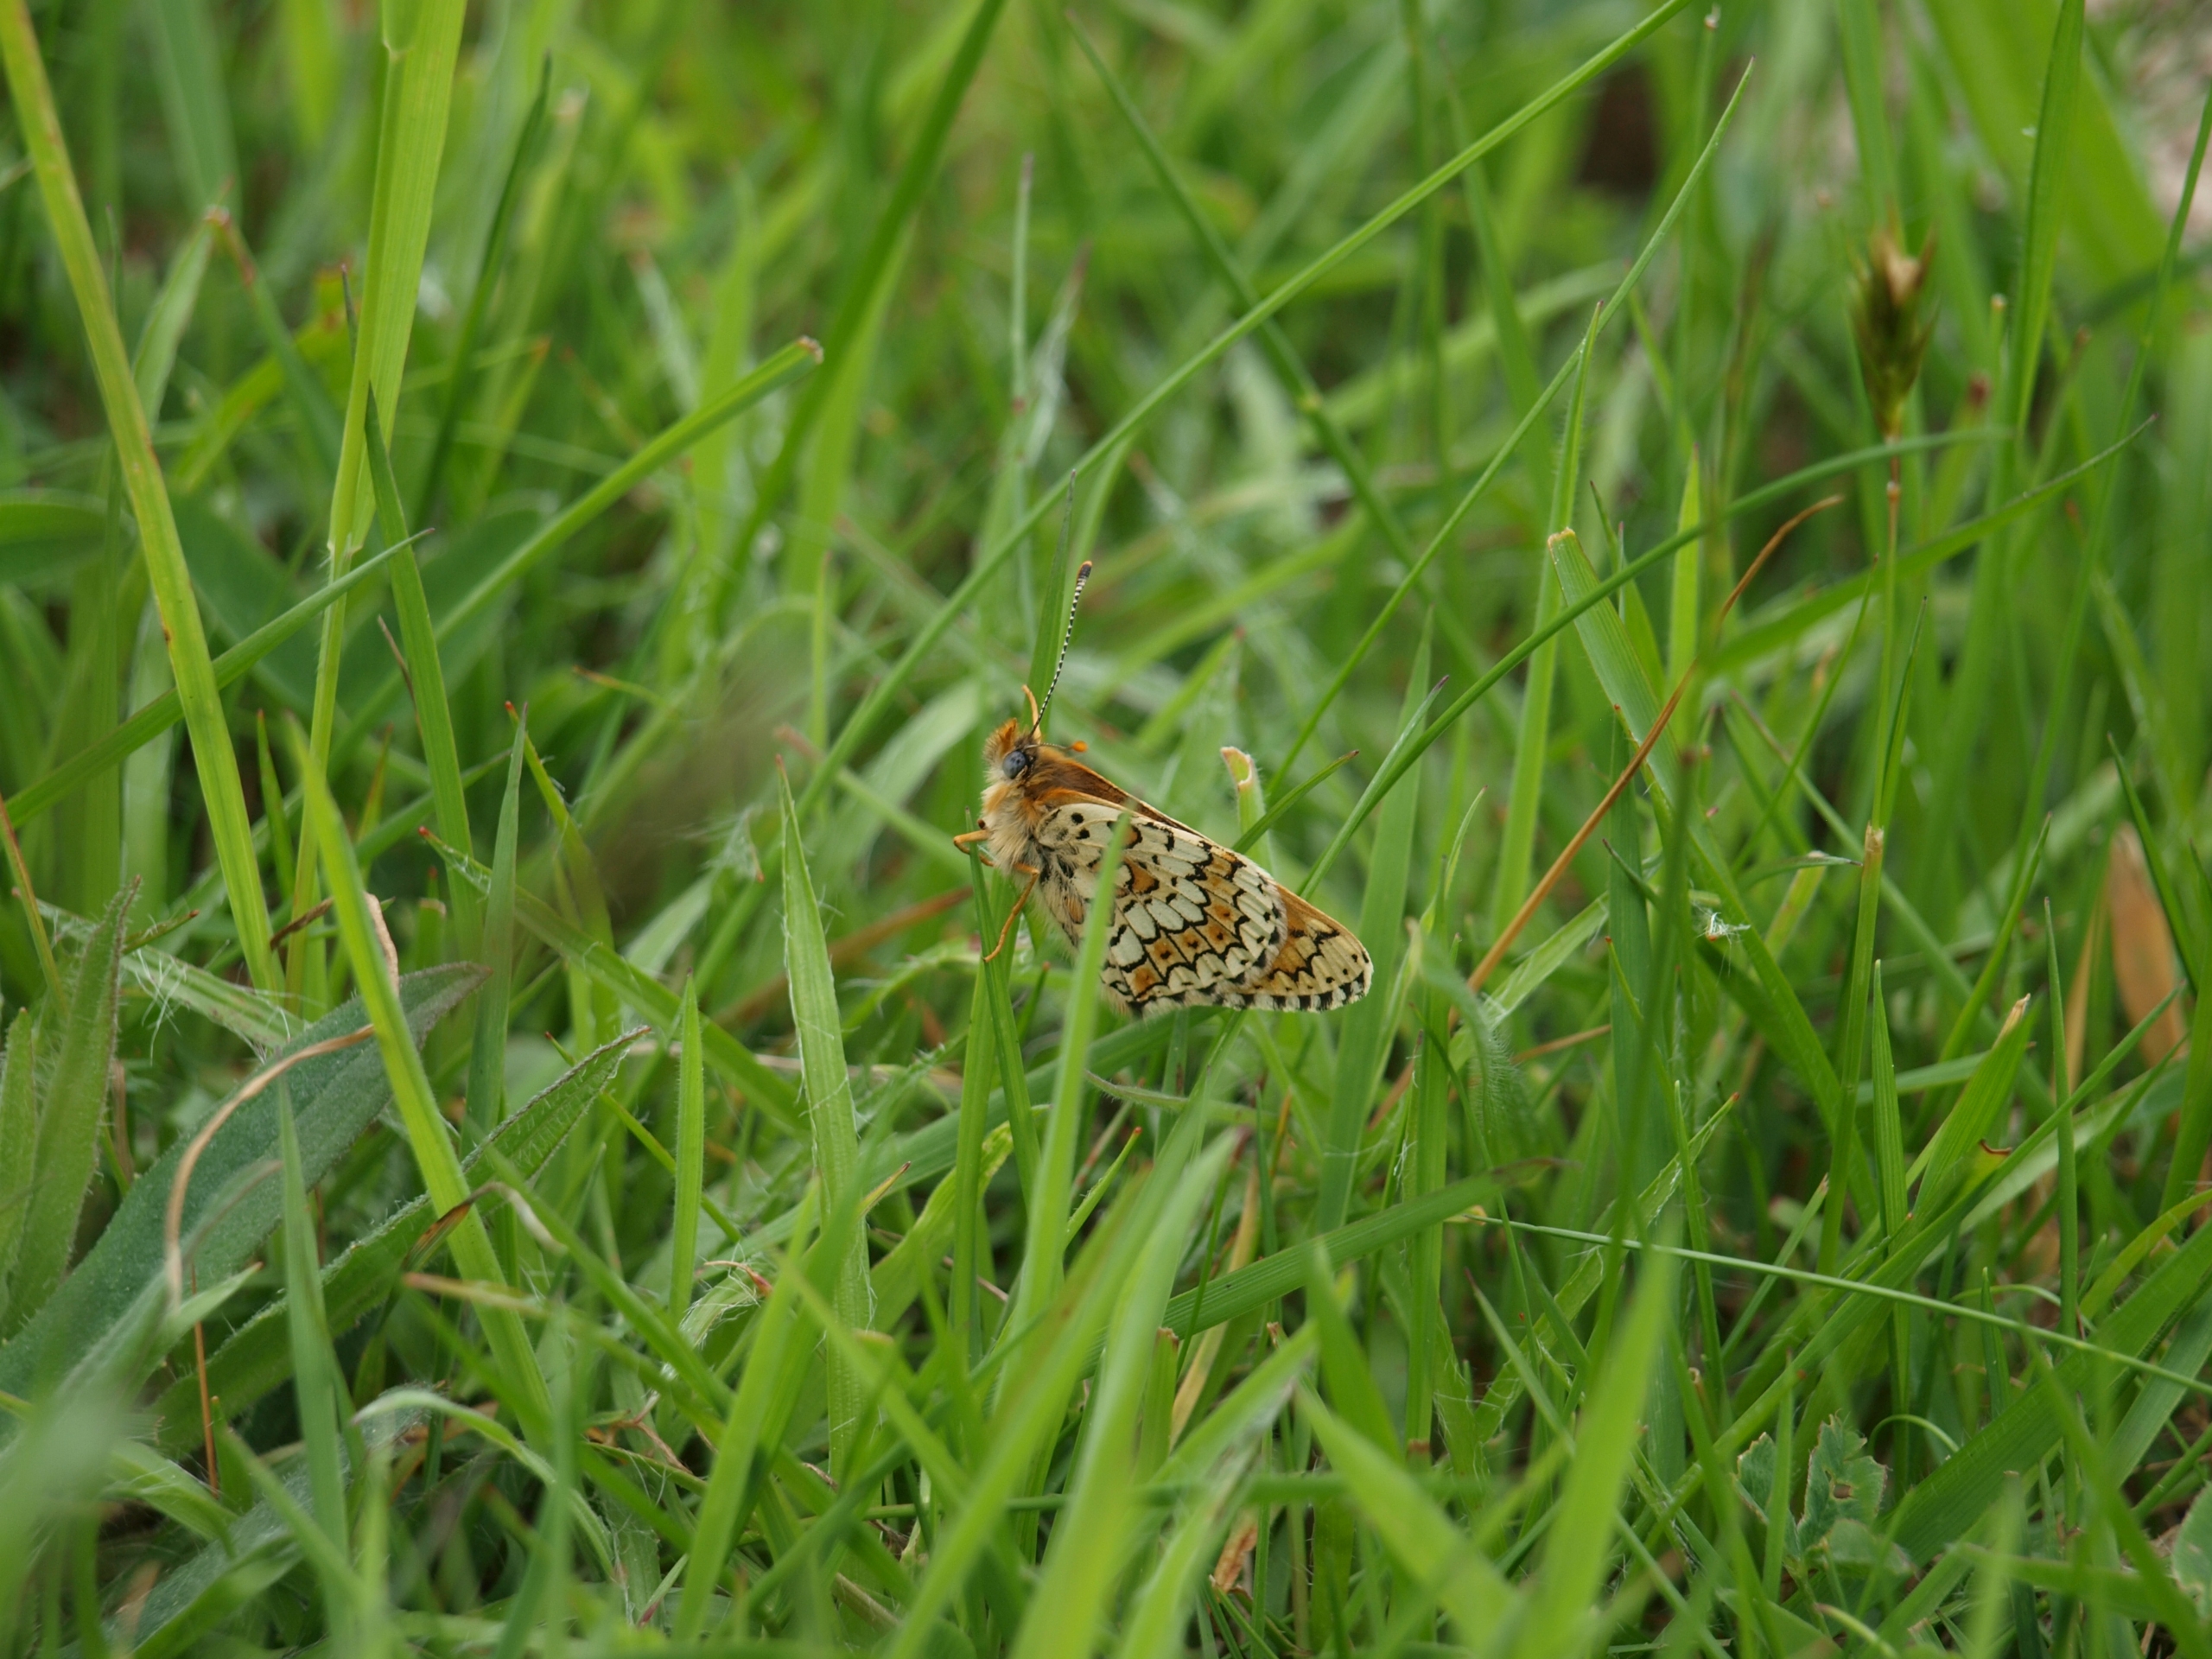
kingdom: Animalia
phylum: Arthropoda
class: Insecta
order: Lepidoptera
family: Nymphalidae
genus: Melitaea
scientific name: Melitaea cinxia
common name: Okkergul pletvinge
